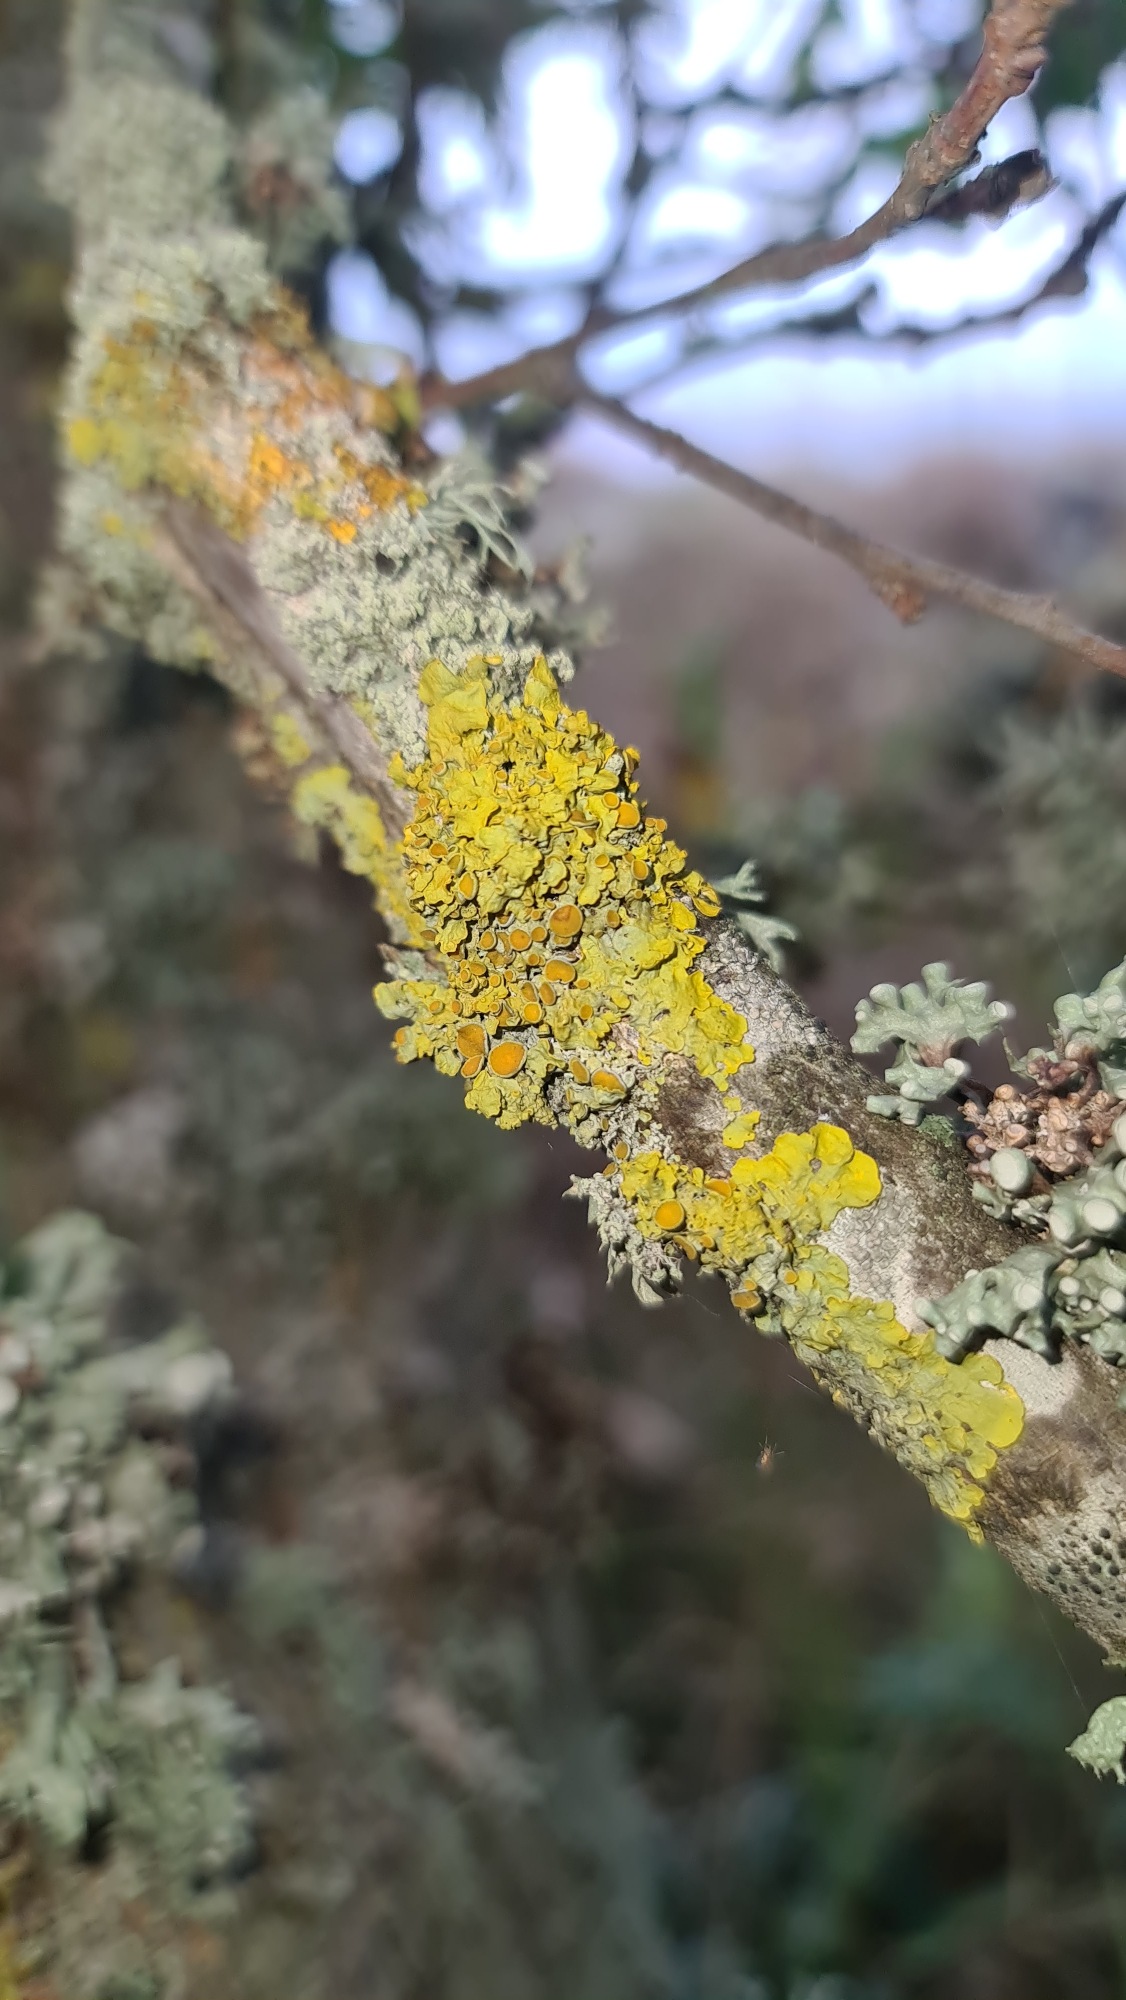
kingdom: Fungi
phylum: Ascomycota
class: Lecanoromycetes
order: Teloschistales
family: Teloschistaceae
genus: Xanthoria
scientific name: Xanthoria parietina
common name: Almindelig væggelav
